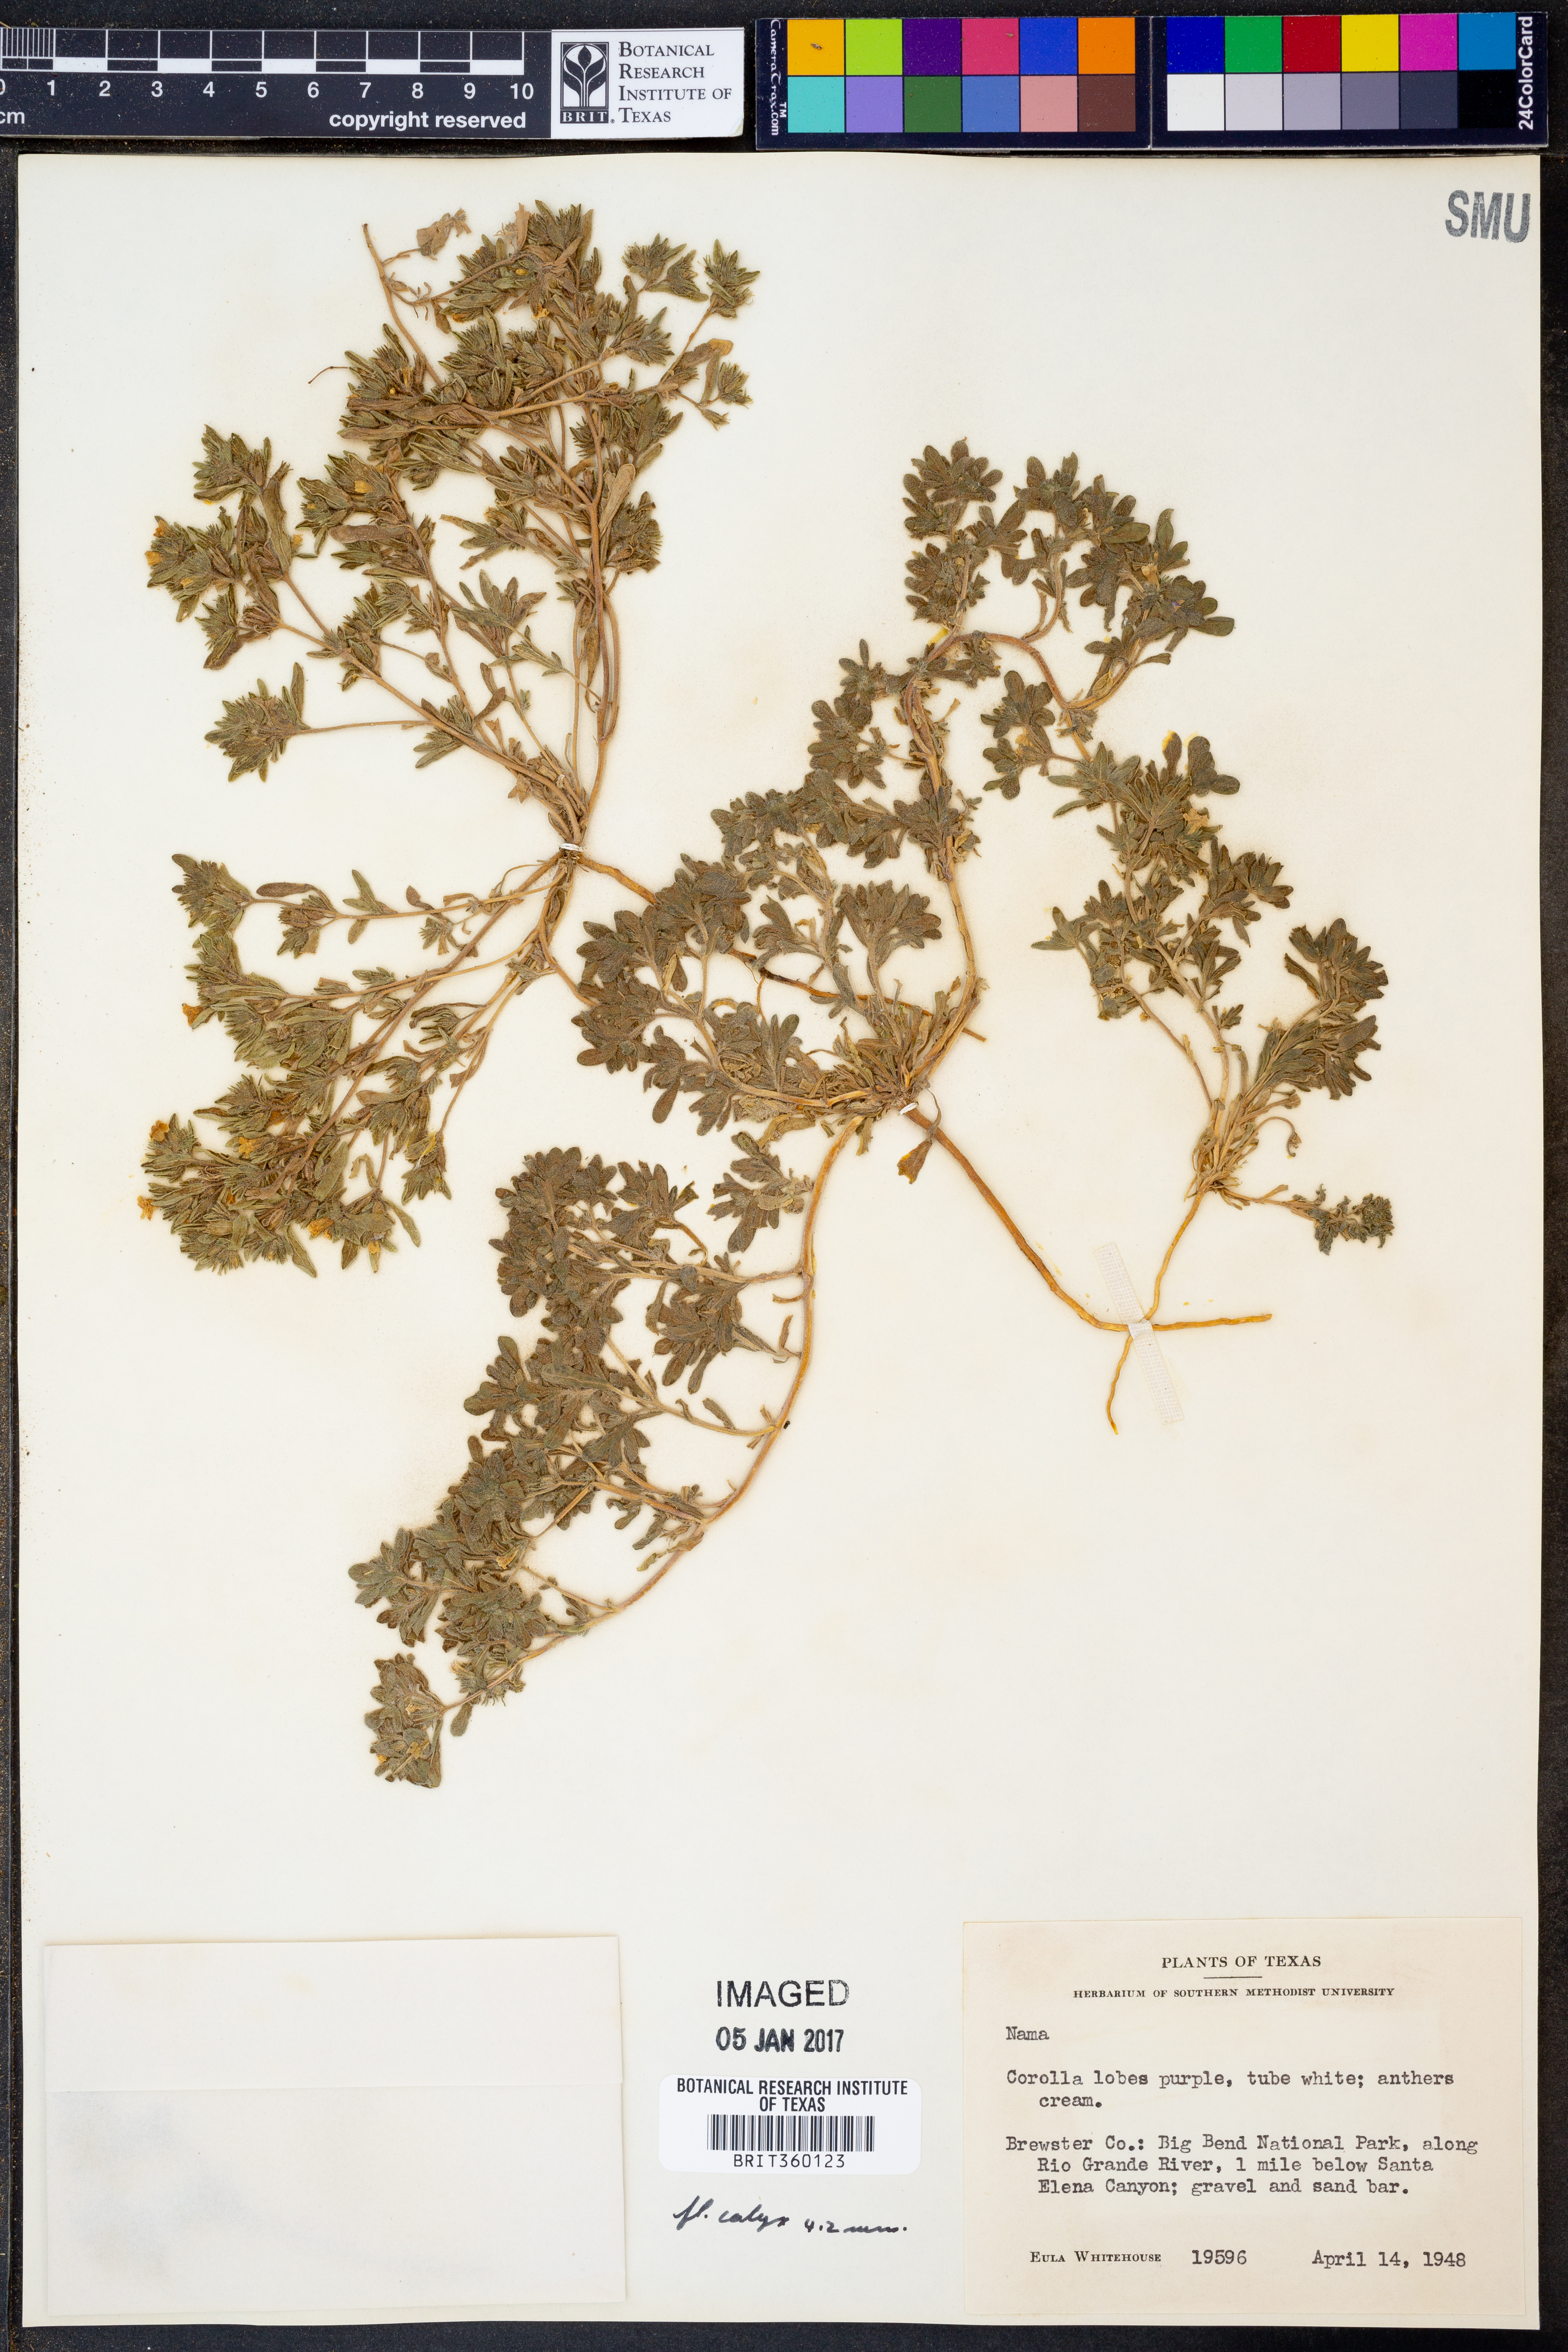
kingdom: Plantae
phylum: Tracheophyta
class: Magnoliopsida
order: Boraginales
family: Namaceae
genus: Nama
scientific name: Nama
